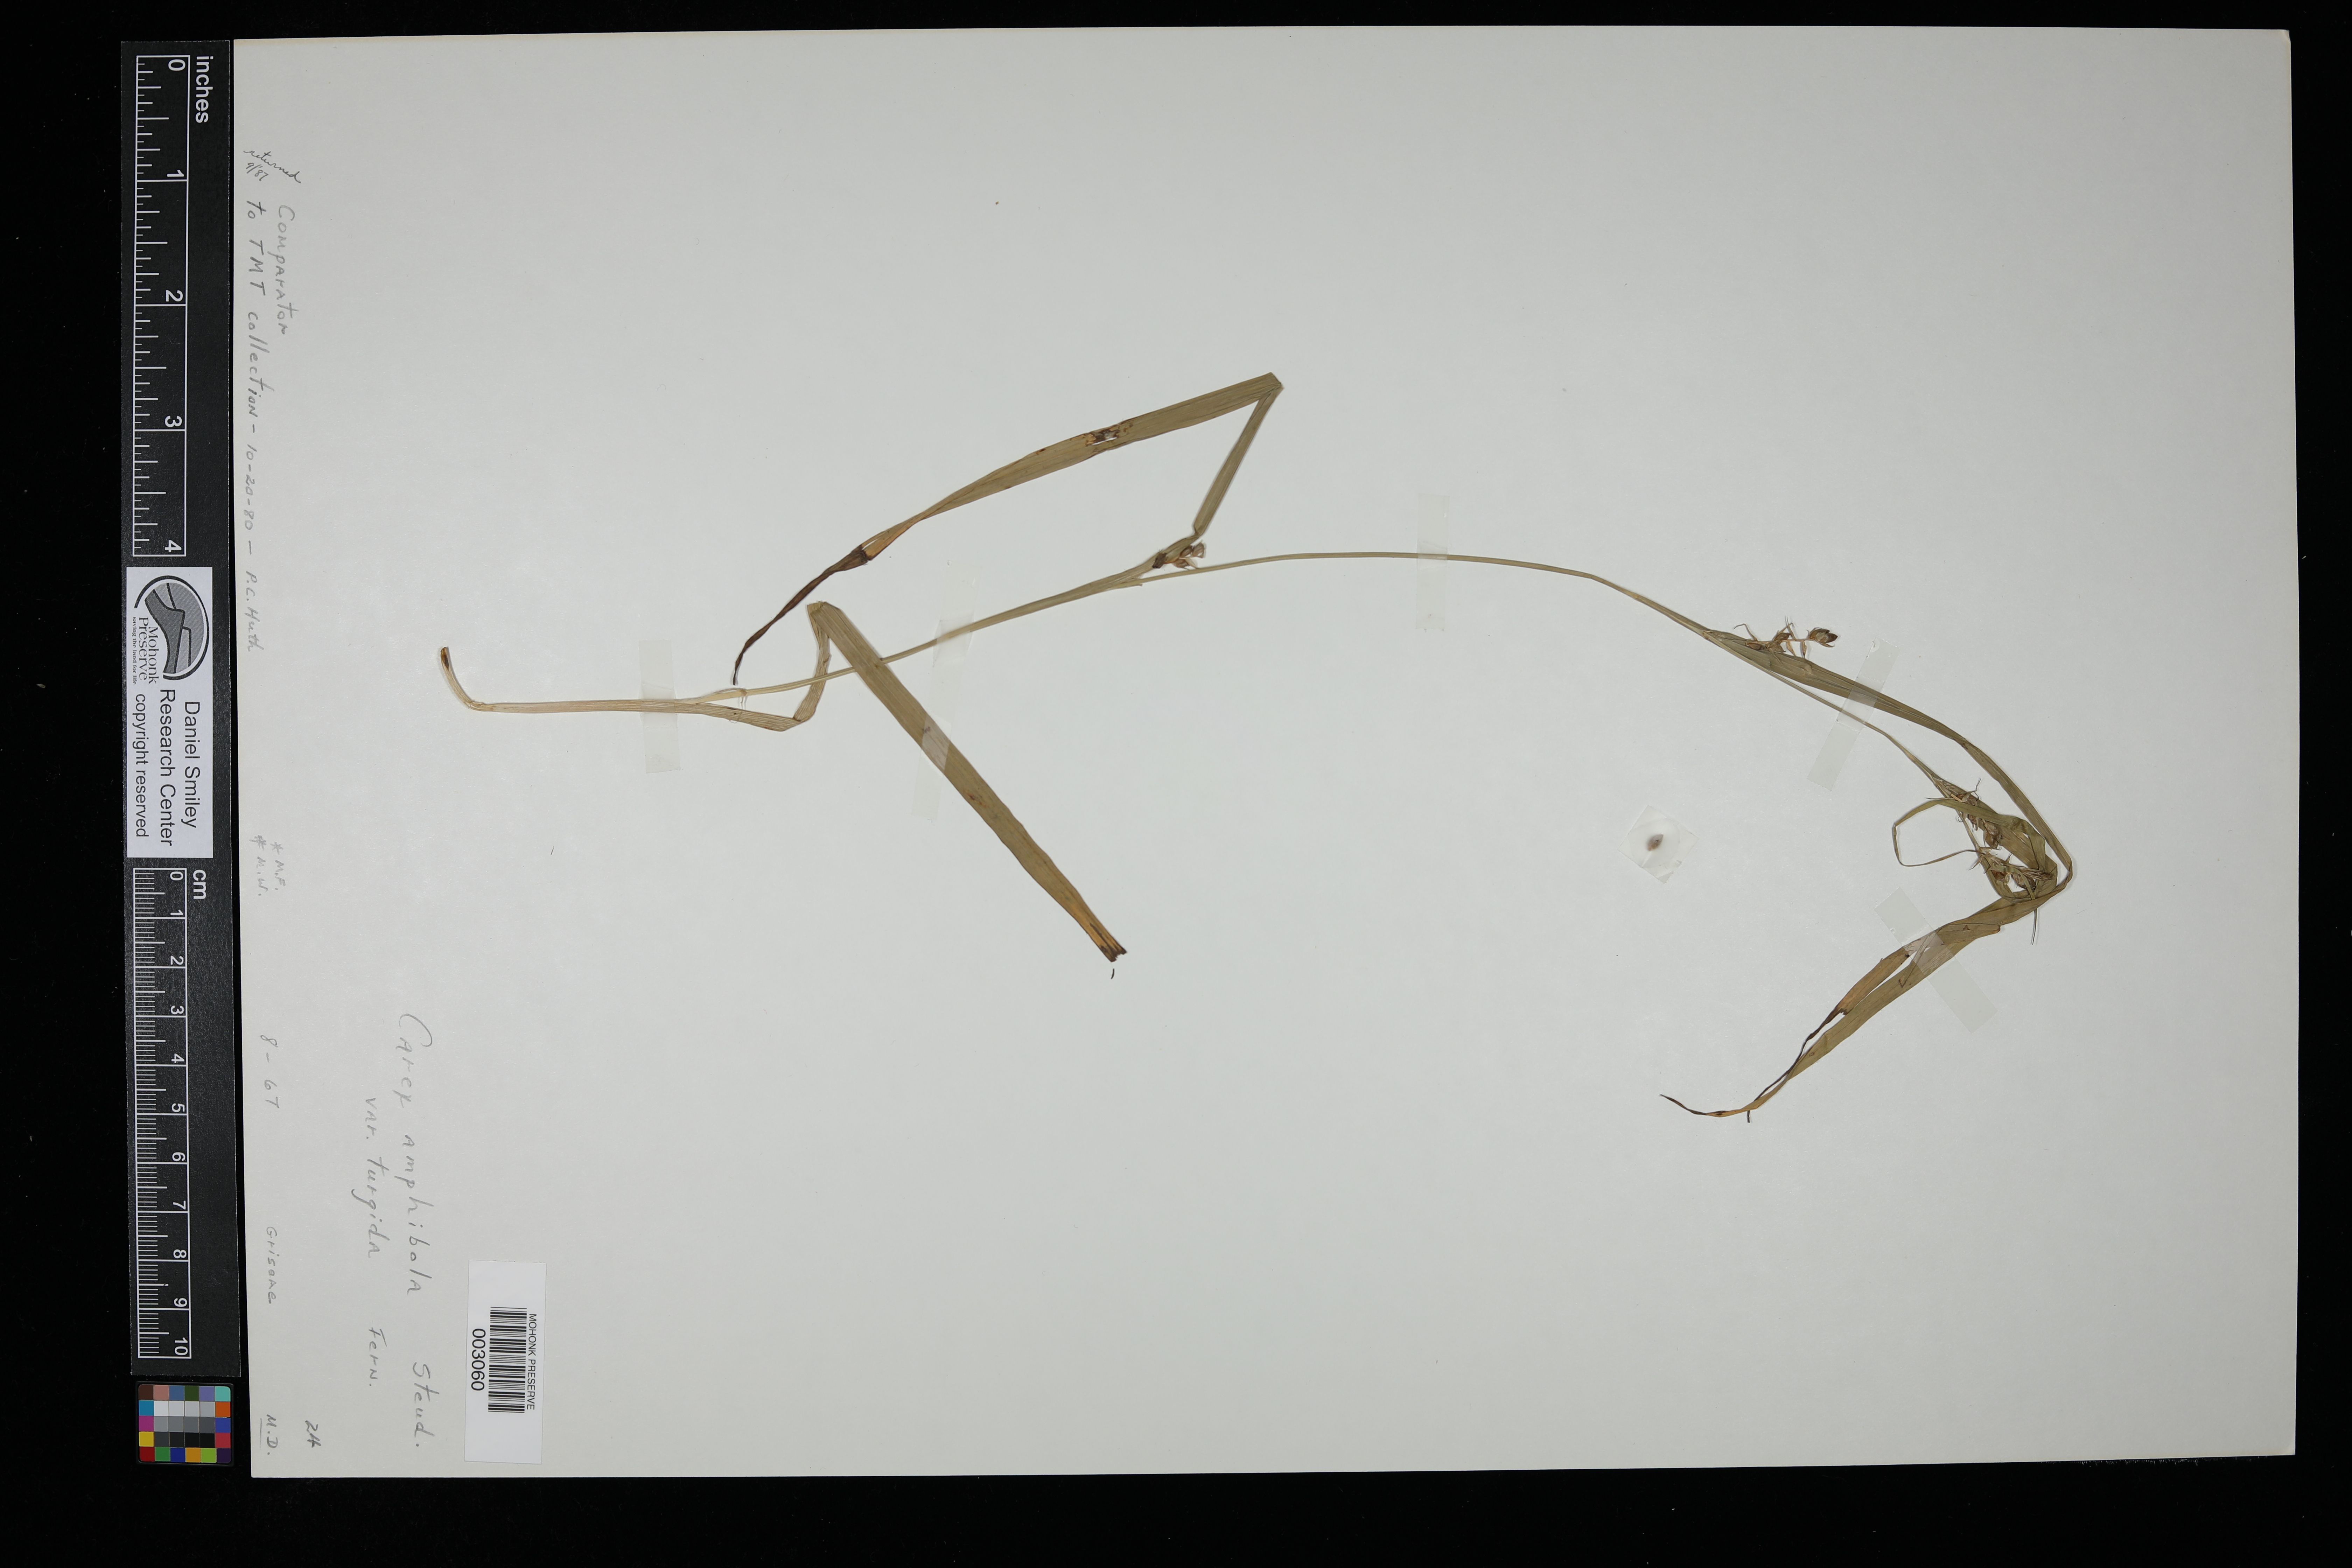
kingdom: Plantae
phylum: Tracheophyta
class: Liliopsida
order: Poales
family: Cyperaceae
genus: Carex
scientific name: Carex grisea
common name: Eastern narrow-leaved sedge
